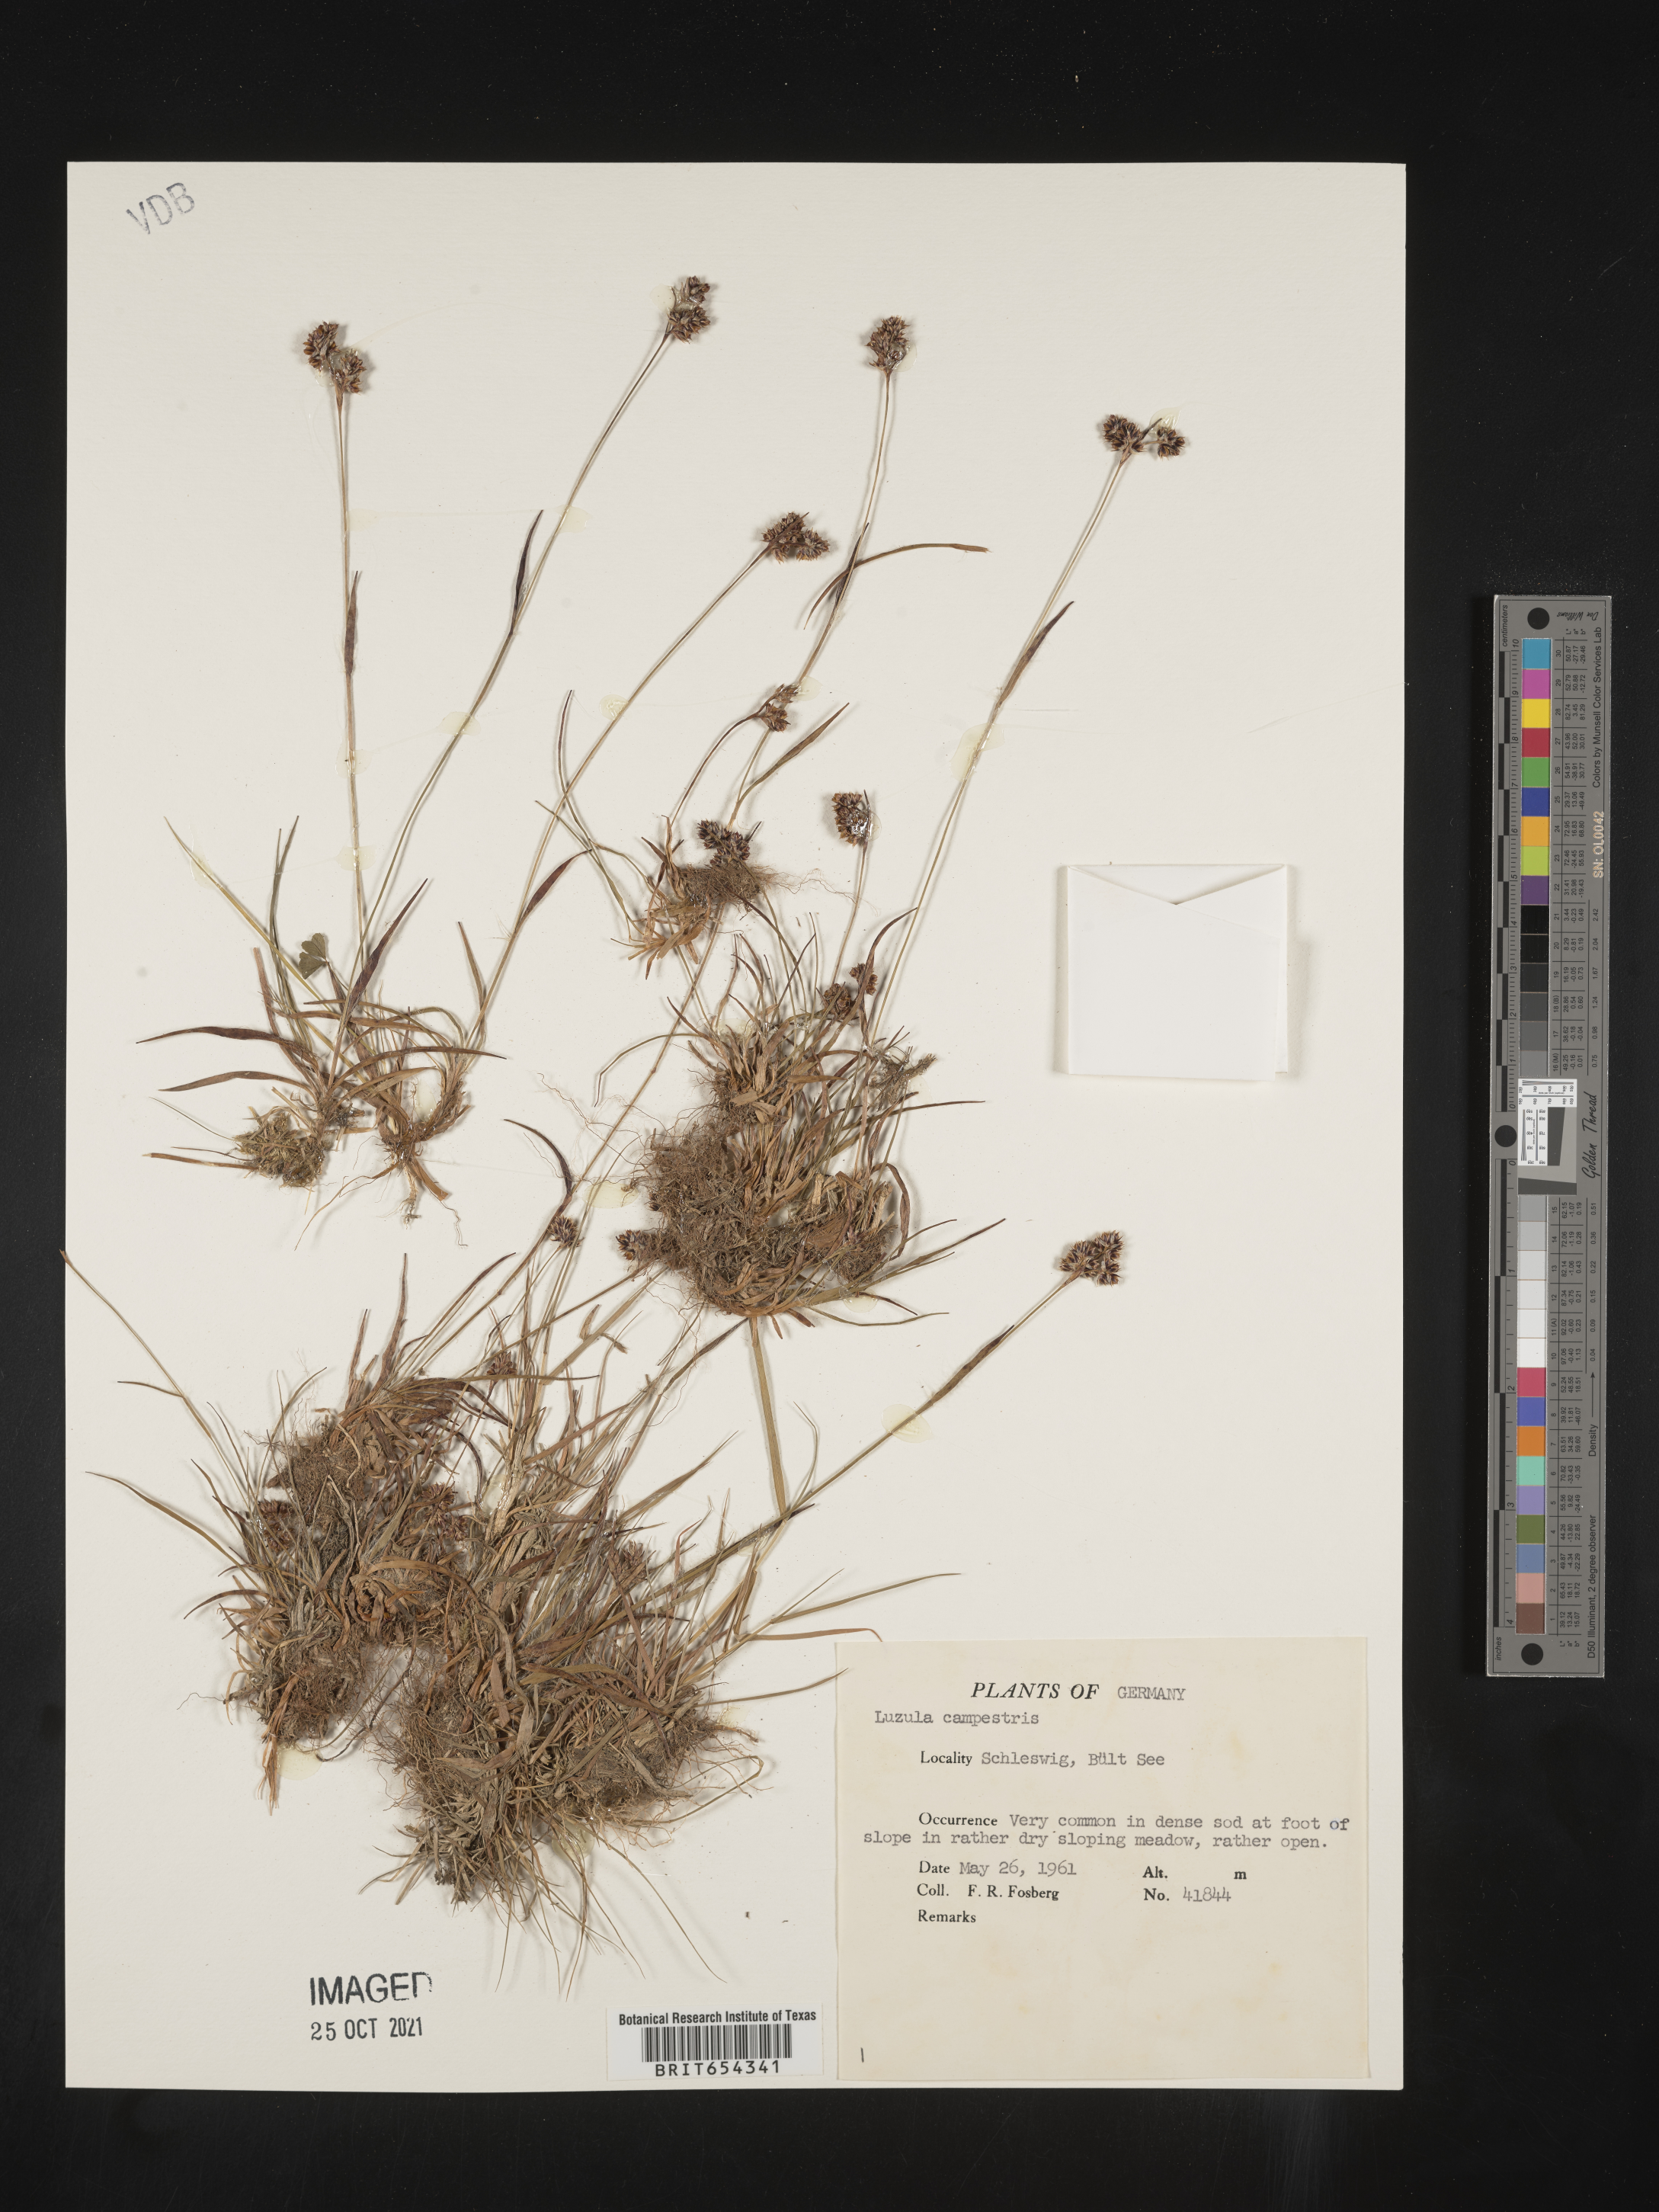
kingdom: Plantae
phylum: Tracheophyta
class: Liliopsida
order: Poales
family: Juncaceae
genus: Luzula
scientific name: Luzula
